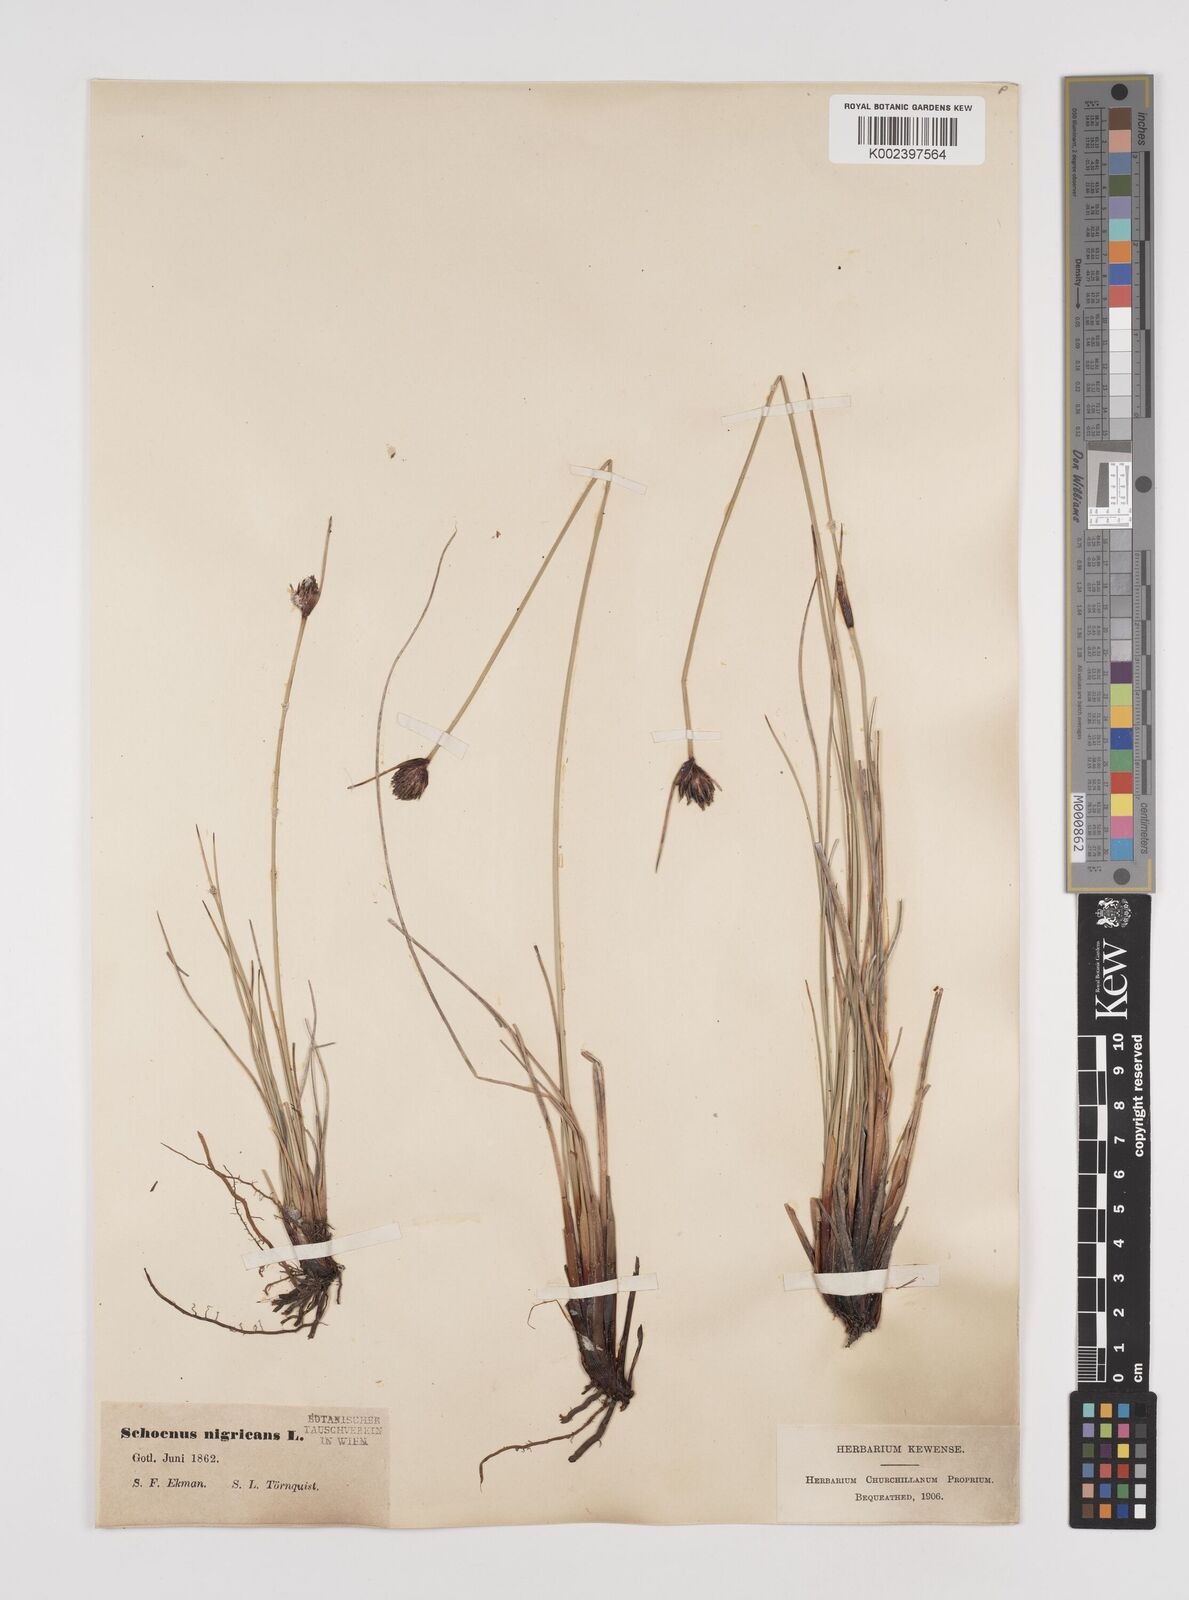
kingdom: Plantae
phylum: Tracheophyta
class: Liliopsida
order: Poales
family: Cyperaceae
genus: Schoenus
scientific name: Schoenus nigricans
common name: Black bog-rush
